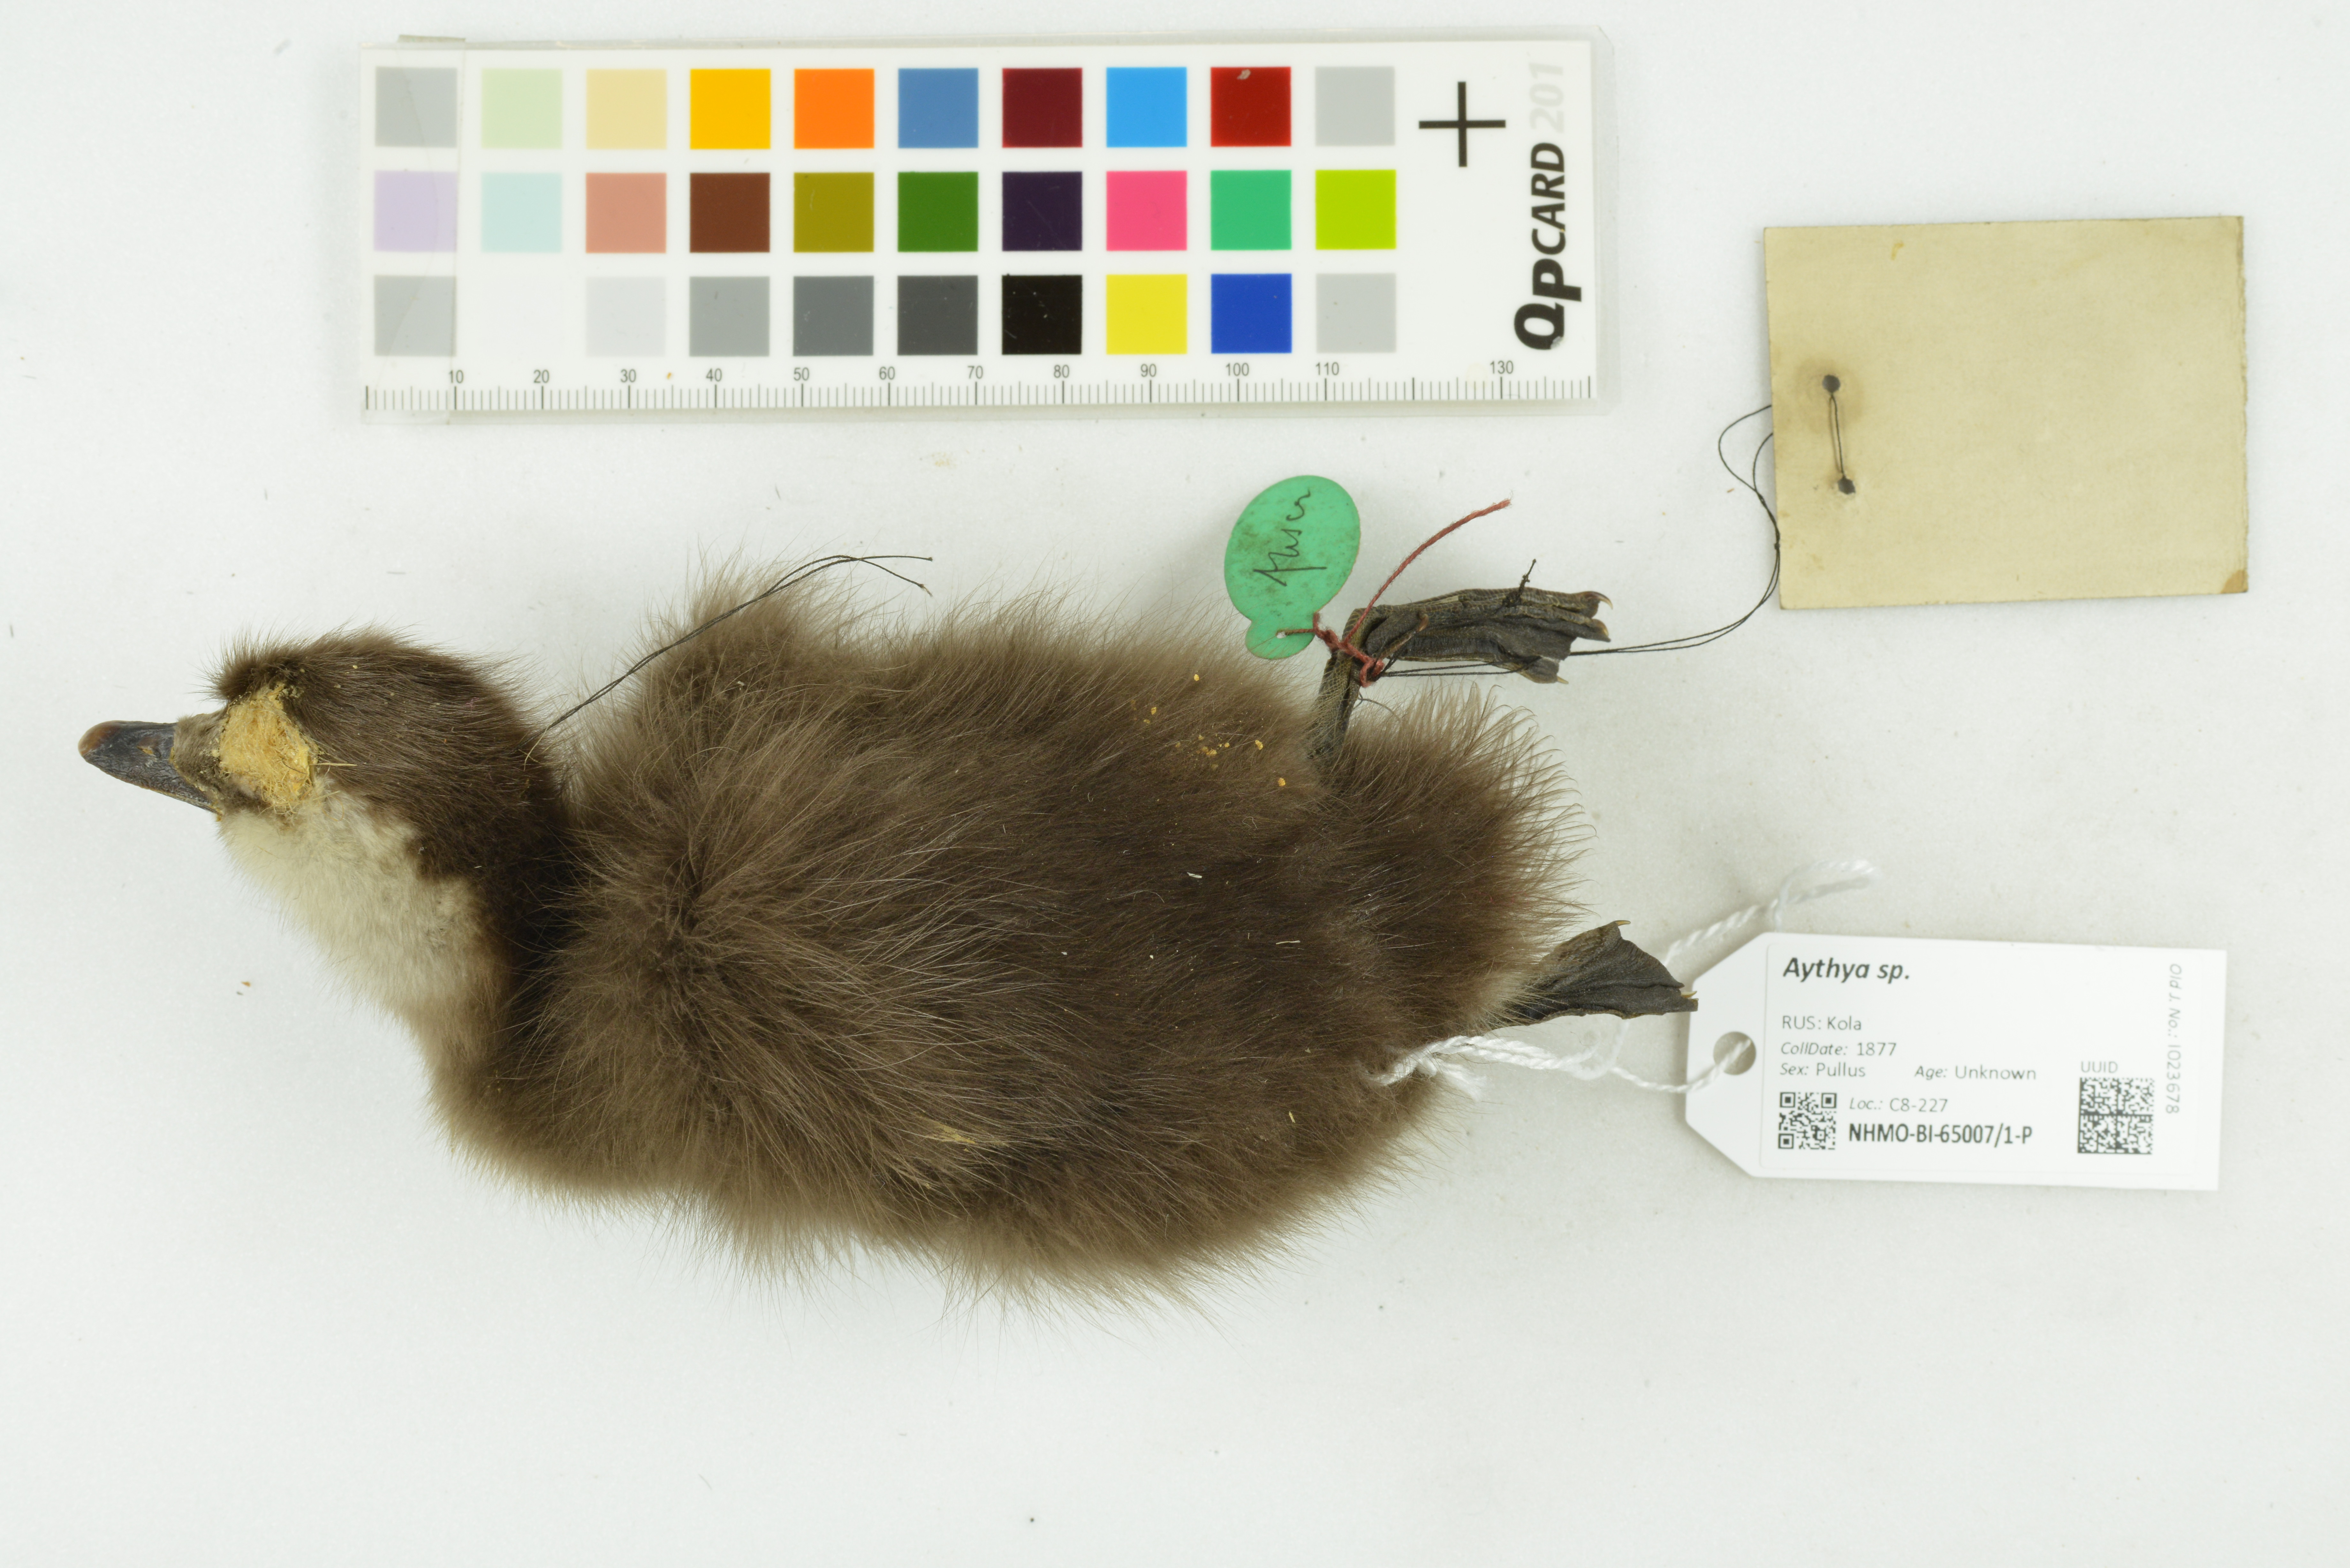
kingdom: Animalia
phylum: Chordata
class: Aves
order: Anseriformes
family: Anatidae
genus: Aythya
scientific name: Aythya
